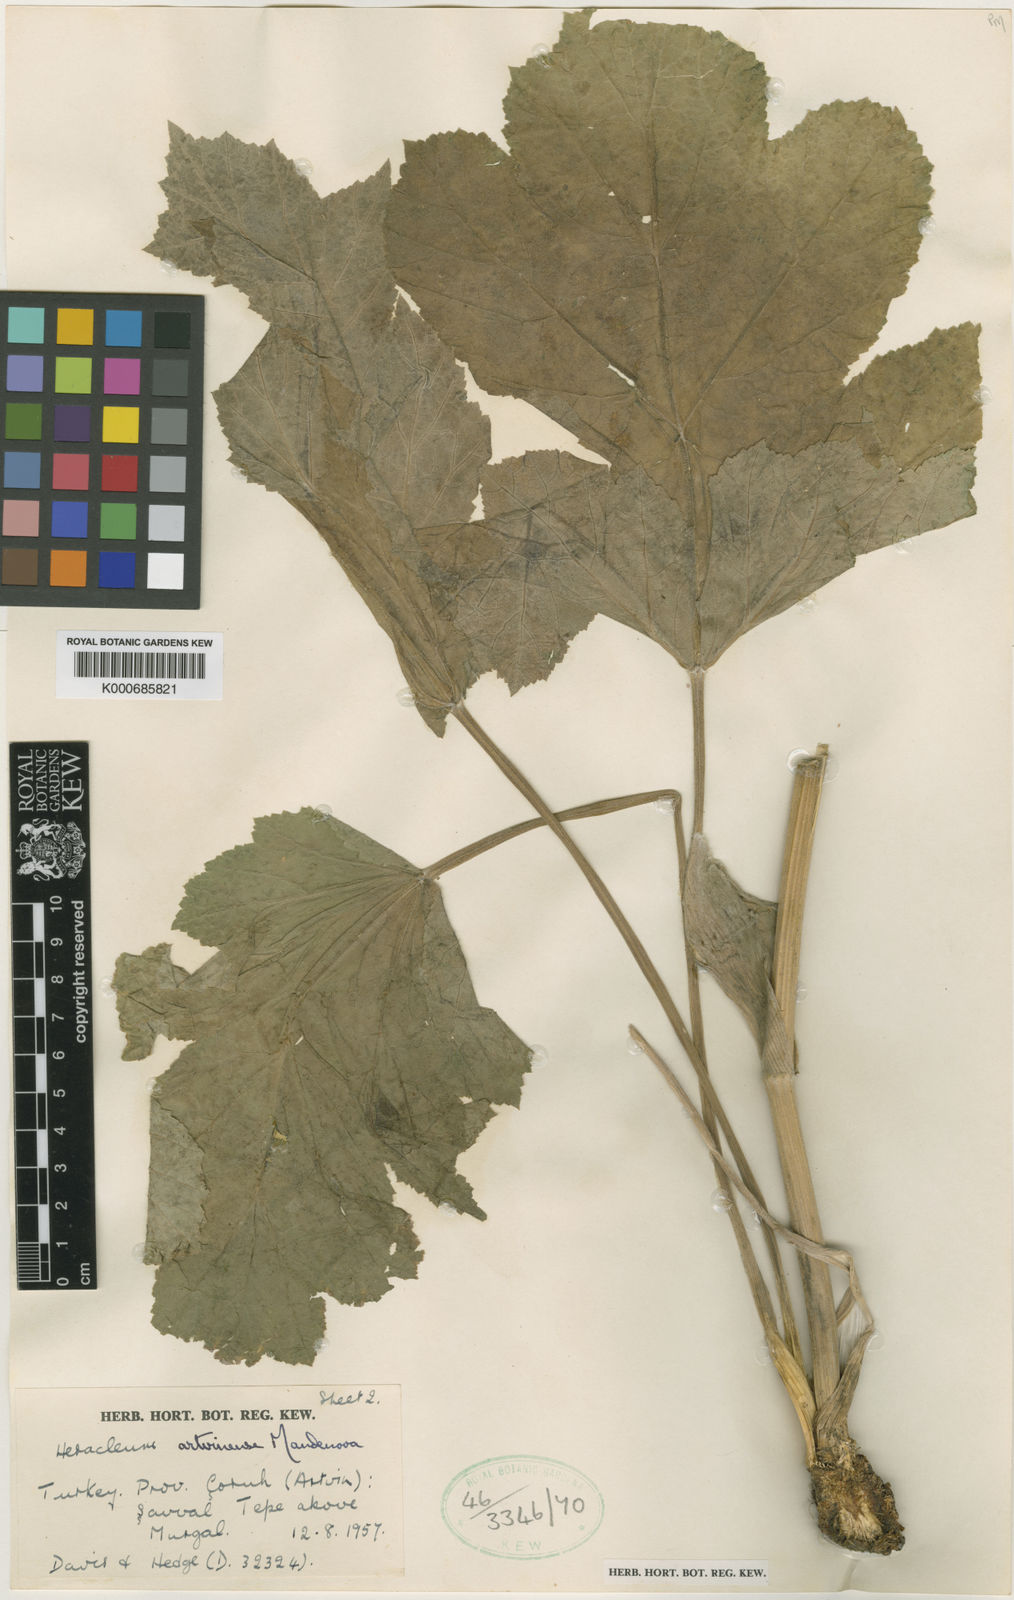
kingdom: Plantae
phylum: Tracheophyta
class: Magnoliopsida
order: Apiales
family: Apiaceae
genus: Heracleum
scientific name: Heracleum sphondylium
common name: Hogweed
